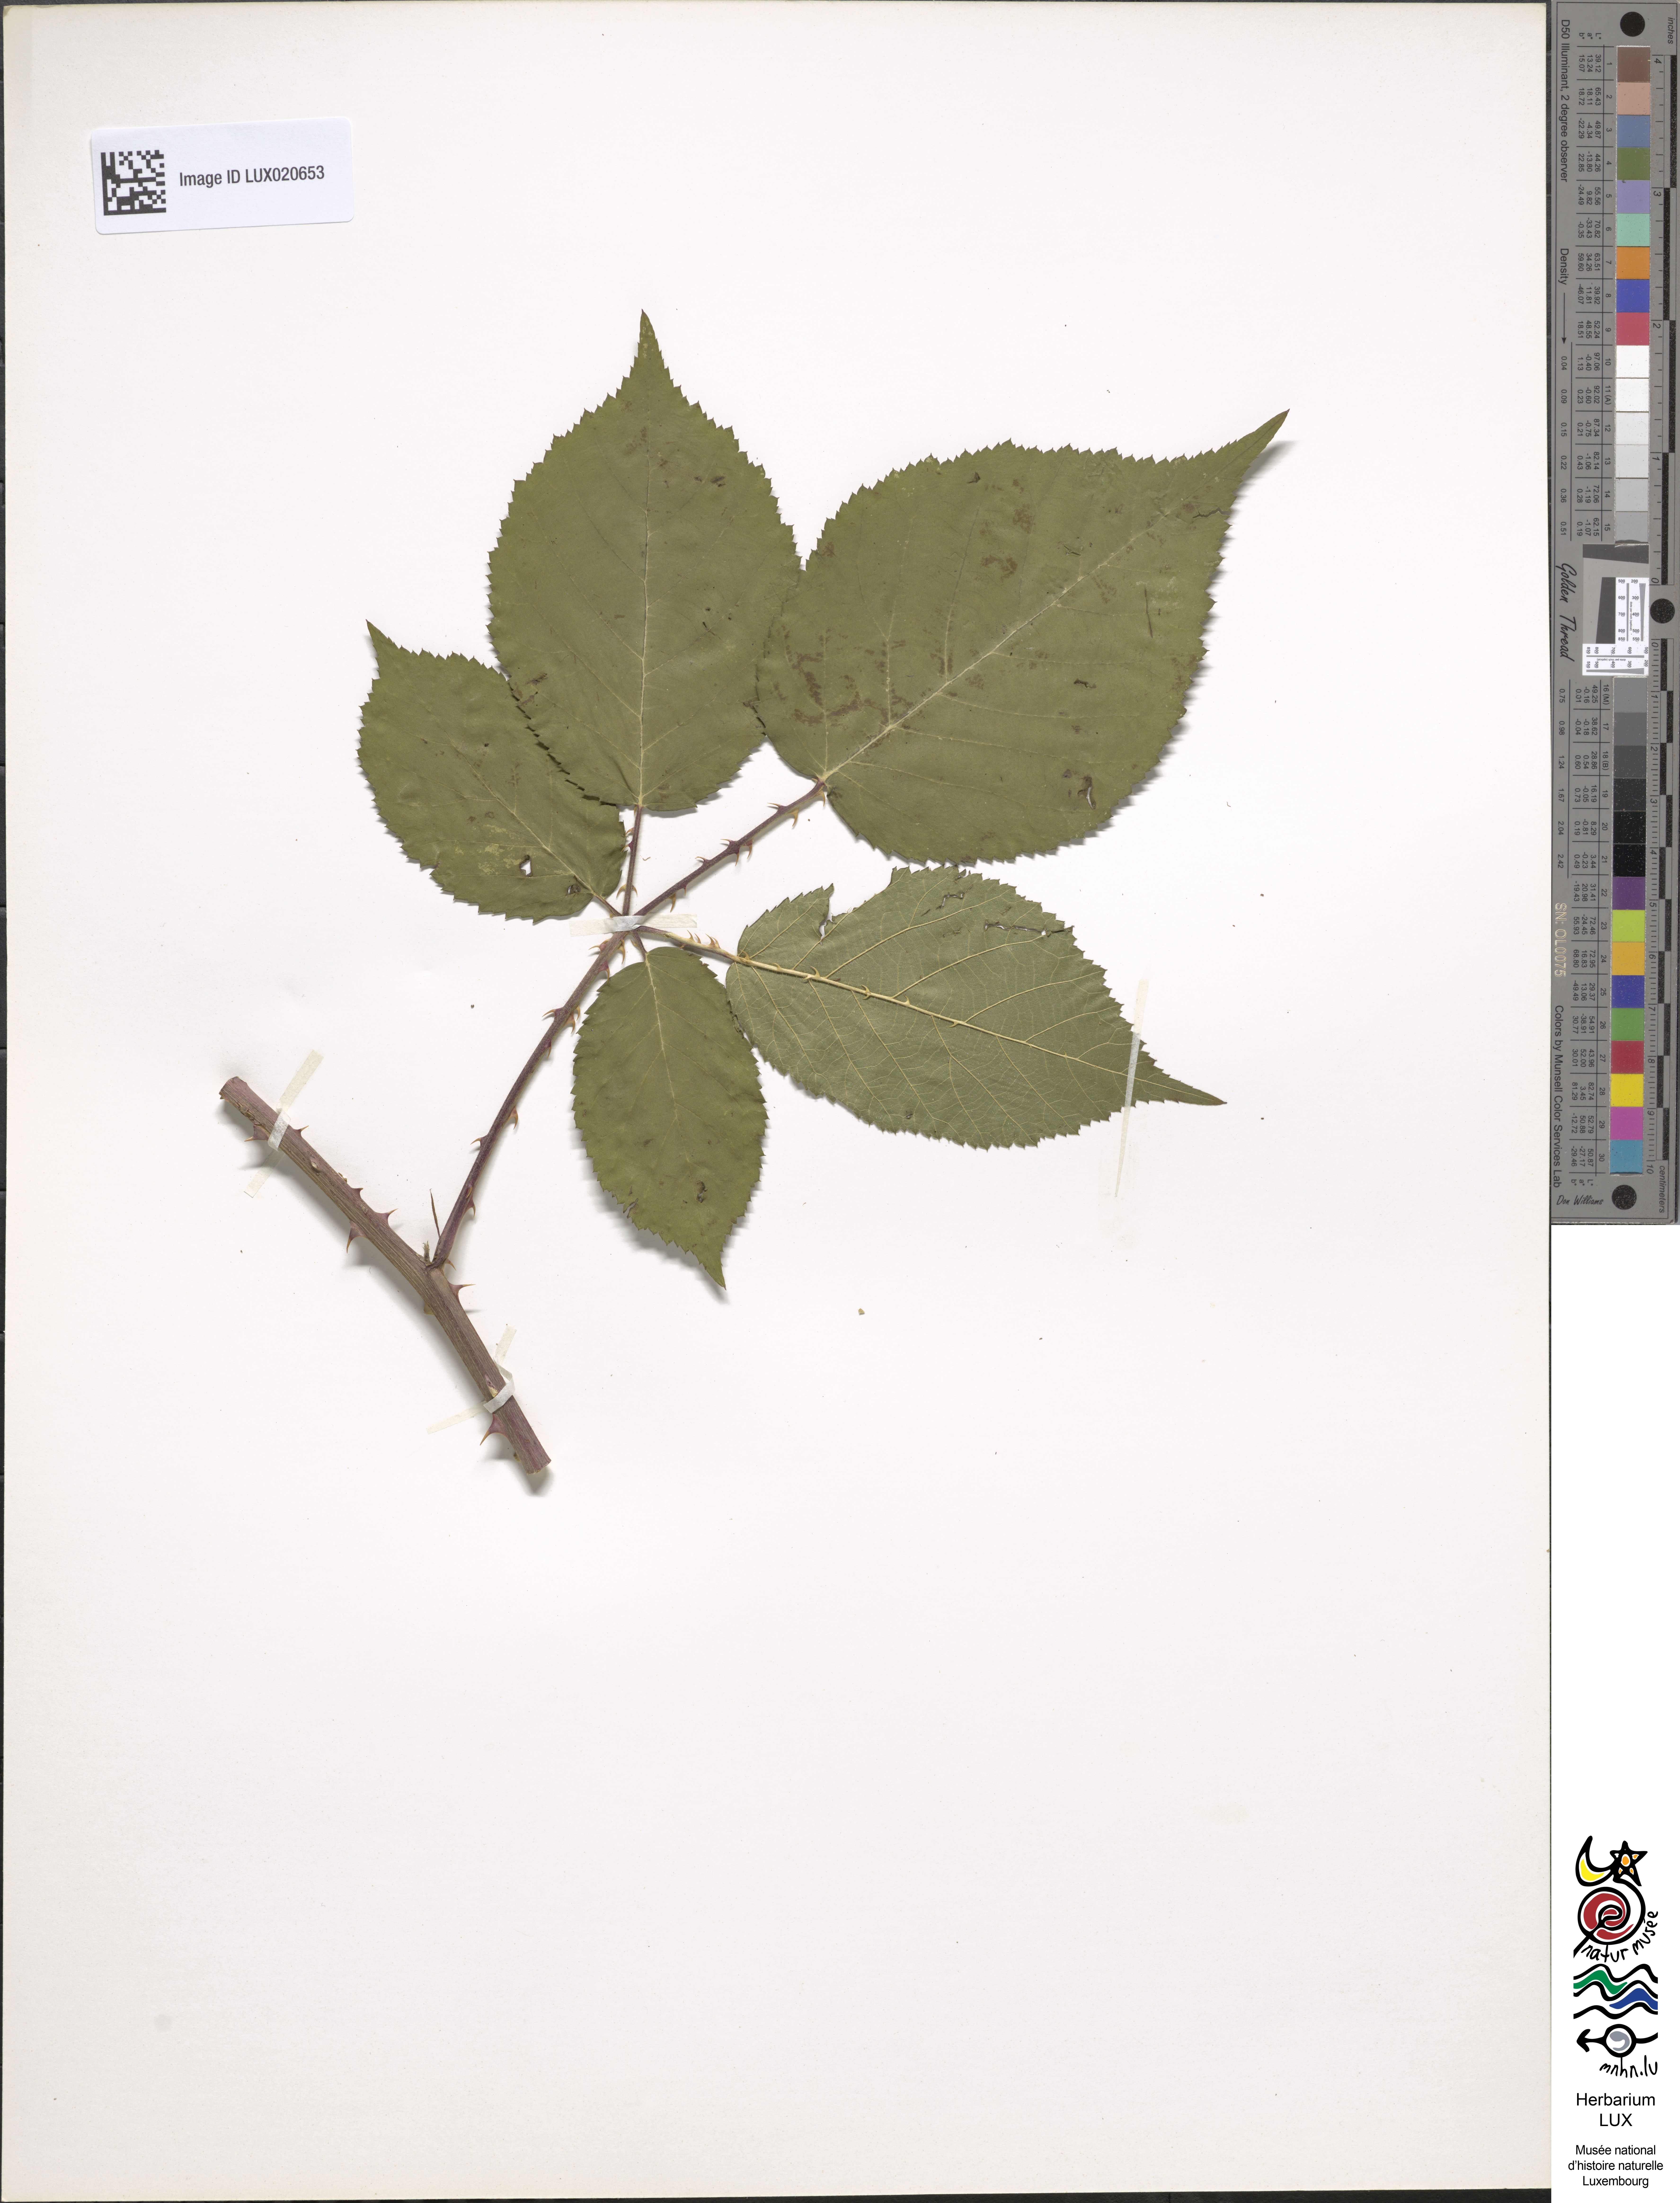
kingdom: Plantae
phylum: Tracheophyta
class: Magnoliopsida
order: Rosales
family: Rosaceae
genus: Rubus
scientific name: Rubus gremlii
